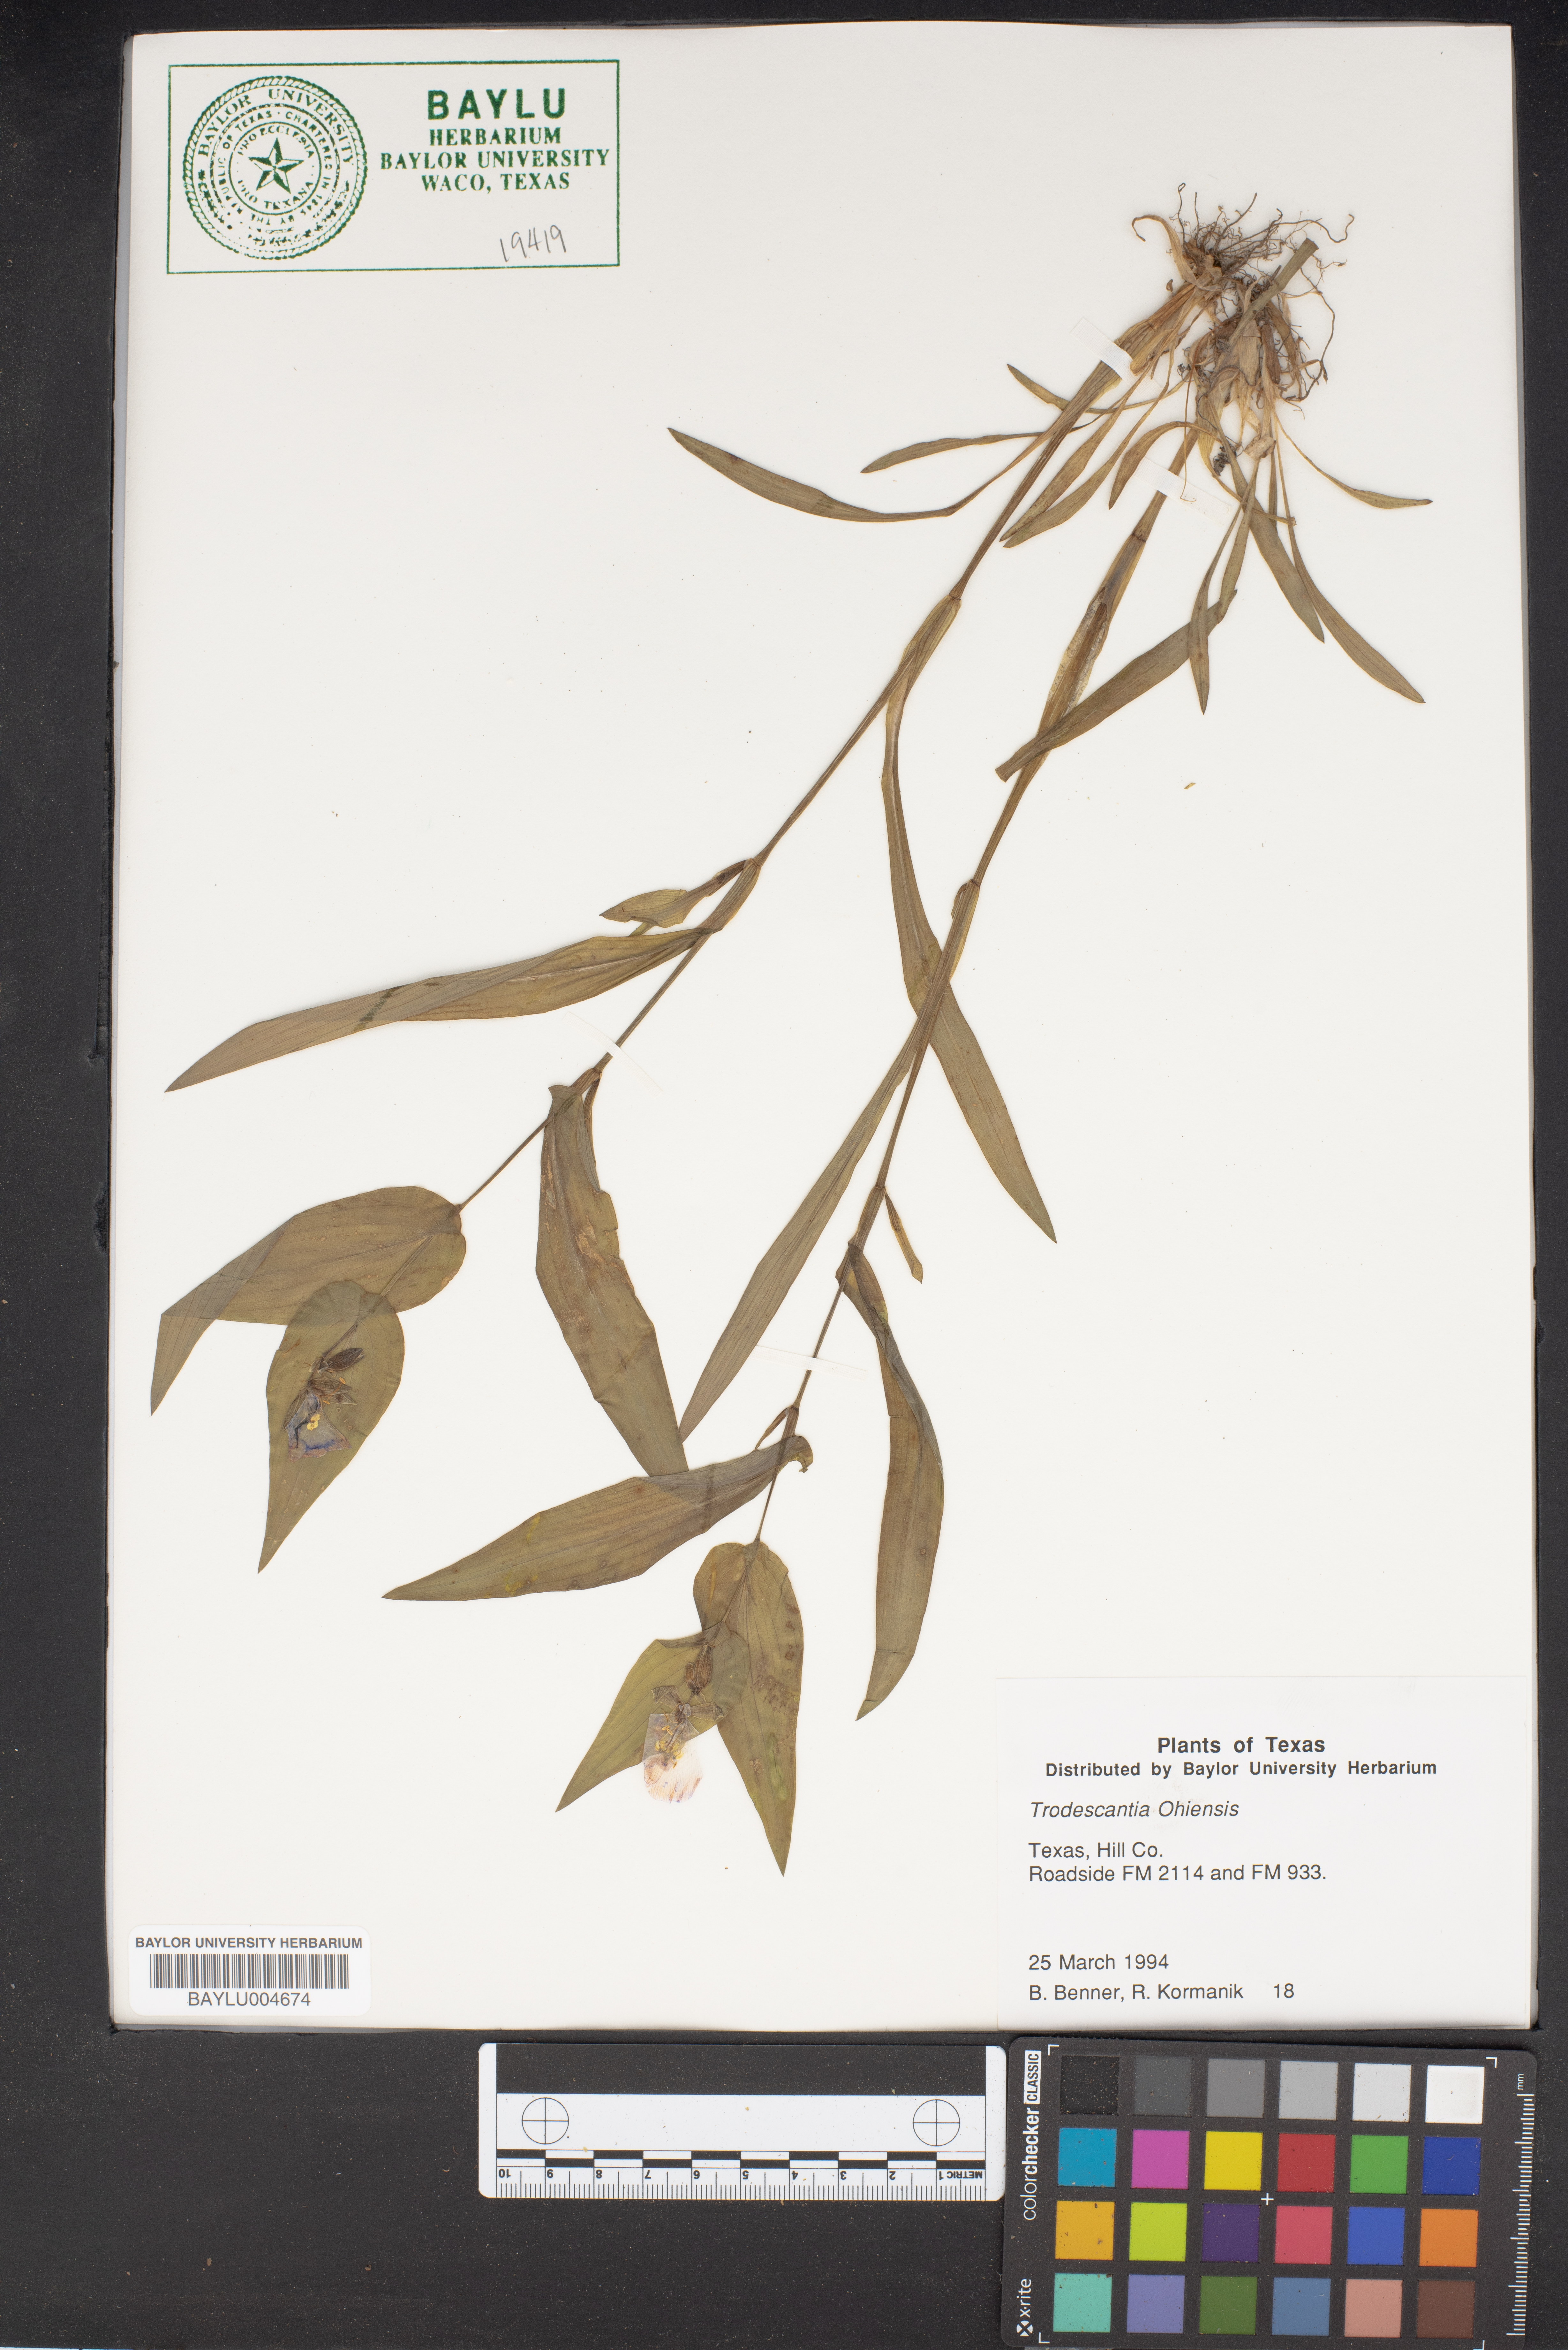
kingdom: Plantae
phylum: Tracheophyta
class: Liliopsida
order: Commelinales
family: Commelinaceae
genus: Tradescantia
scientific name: Tradescantia ohiensis
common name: Ohio spiderwort
